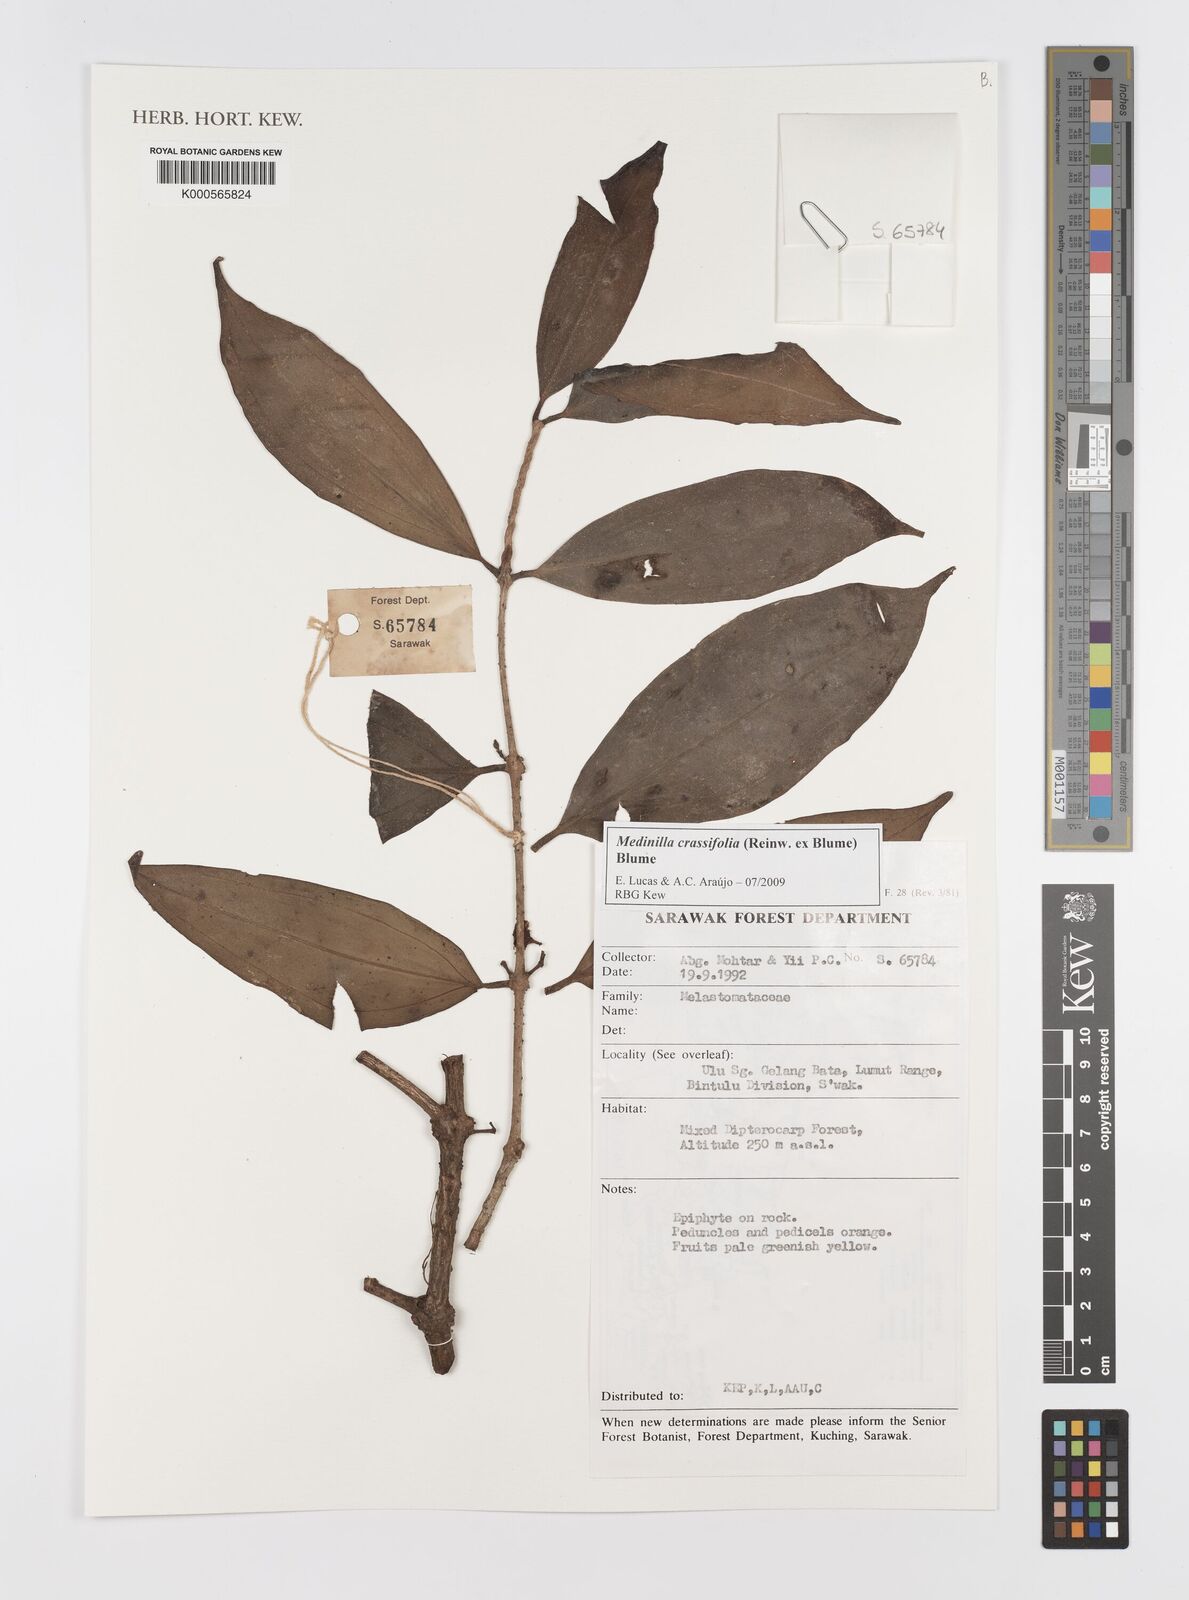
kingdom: Plantae
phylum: Tracheophyta
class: Magnoliopsida
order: Myrtales
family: Melastomataceae
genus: Medinilla
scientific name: Medinilla crassifolia
